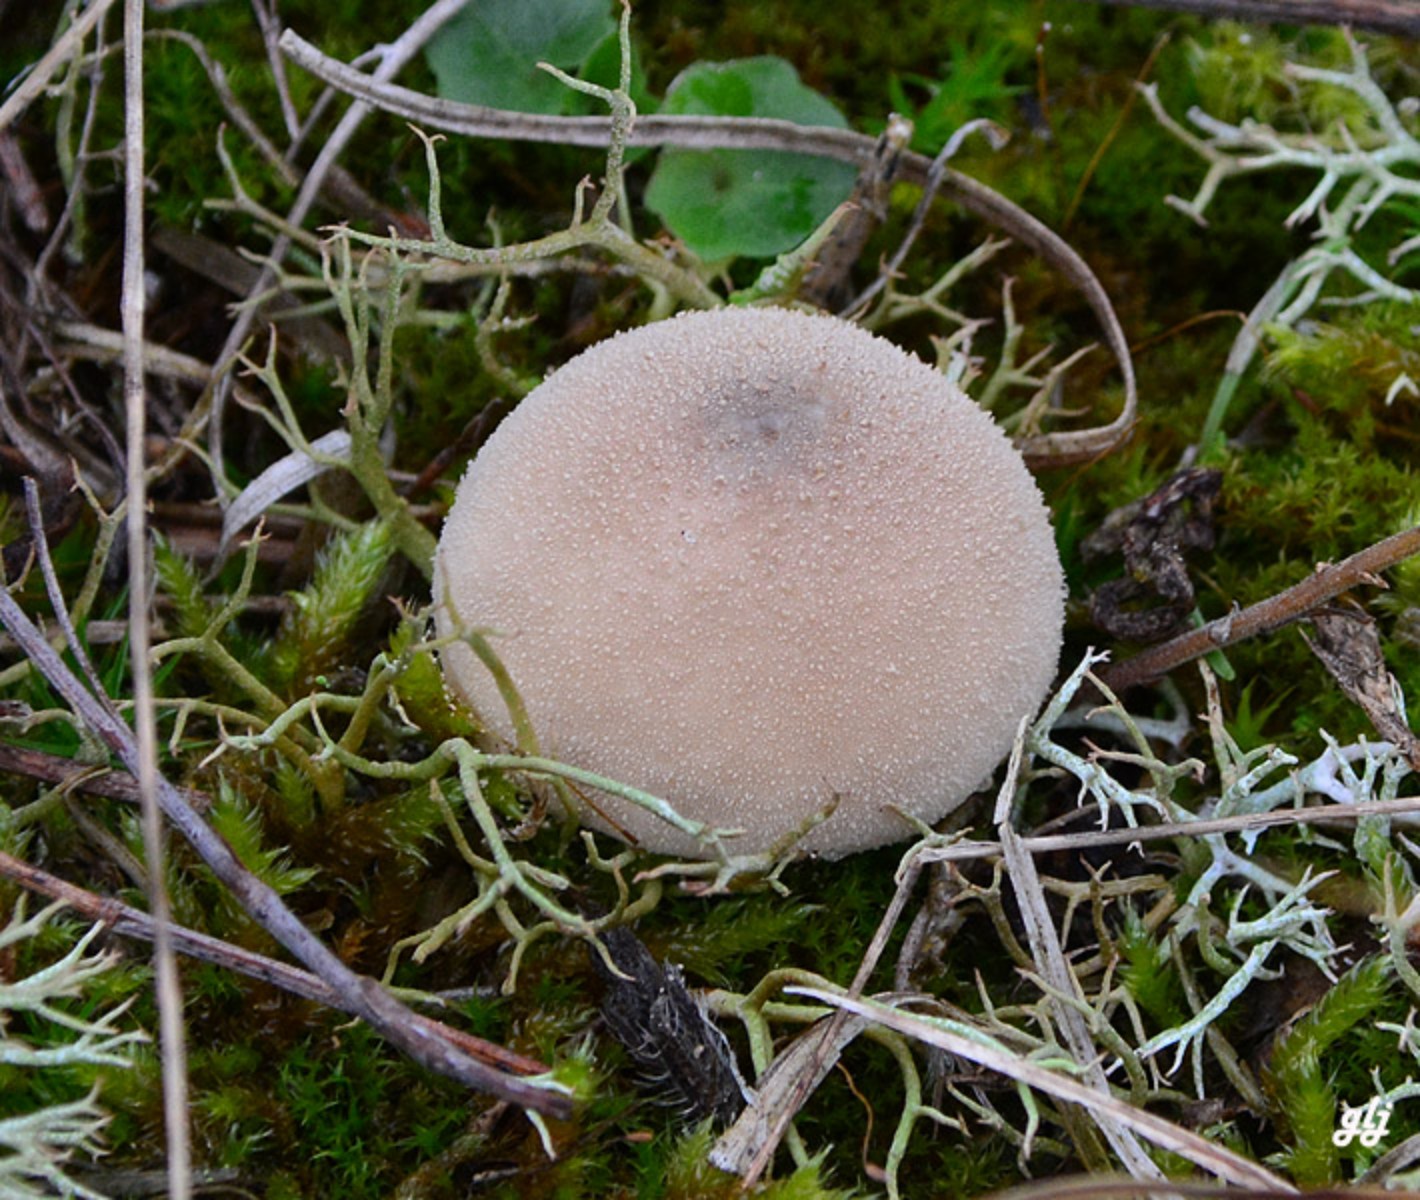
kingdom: Fungi
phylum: Basidiomycota
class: Agaricomycetes
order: Agaricales
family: Lycoperdaceae
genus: Lycoperdon
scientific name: Lycoperdon lividum
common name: mark-støvbold
